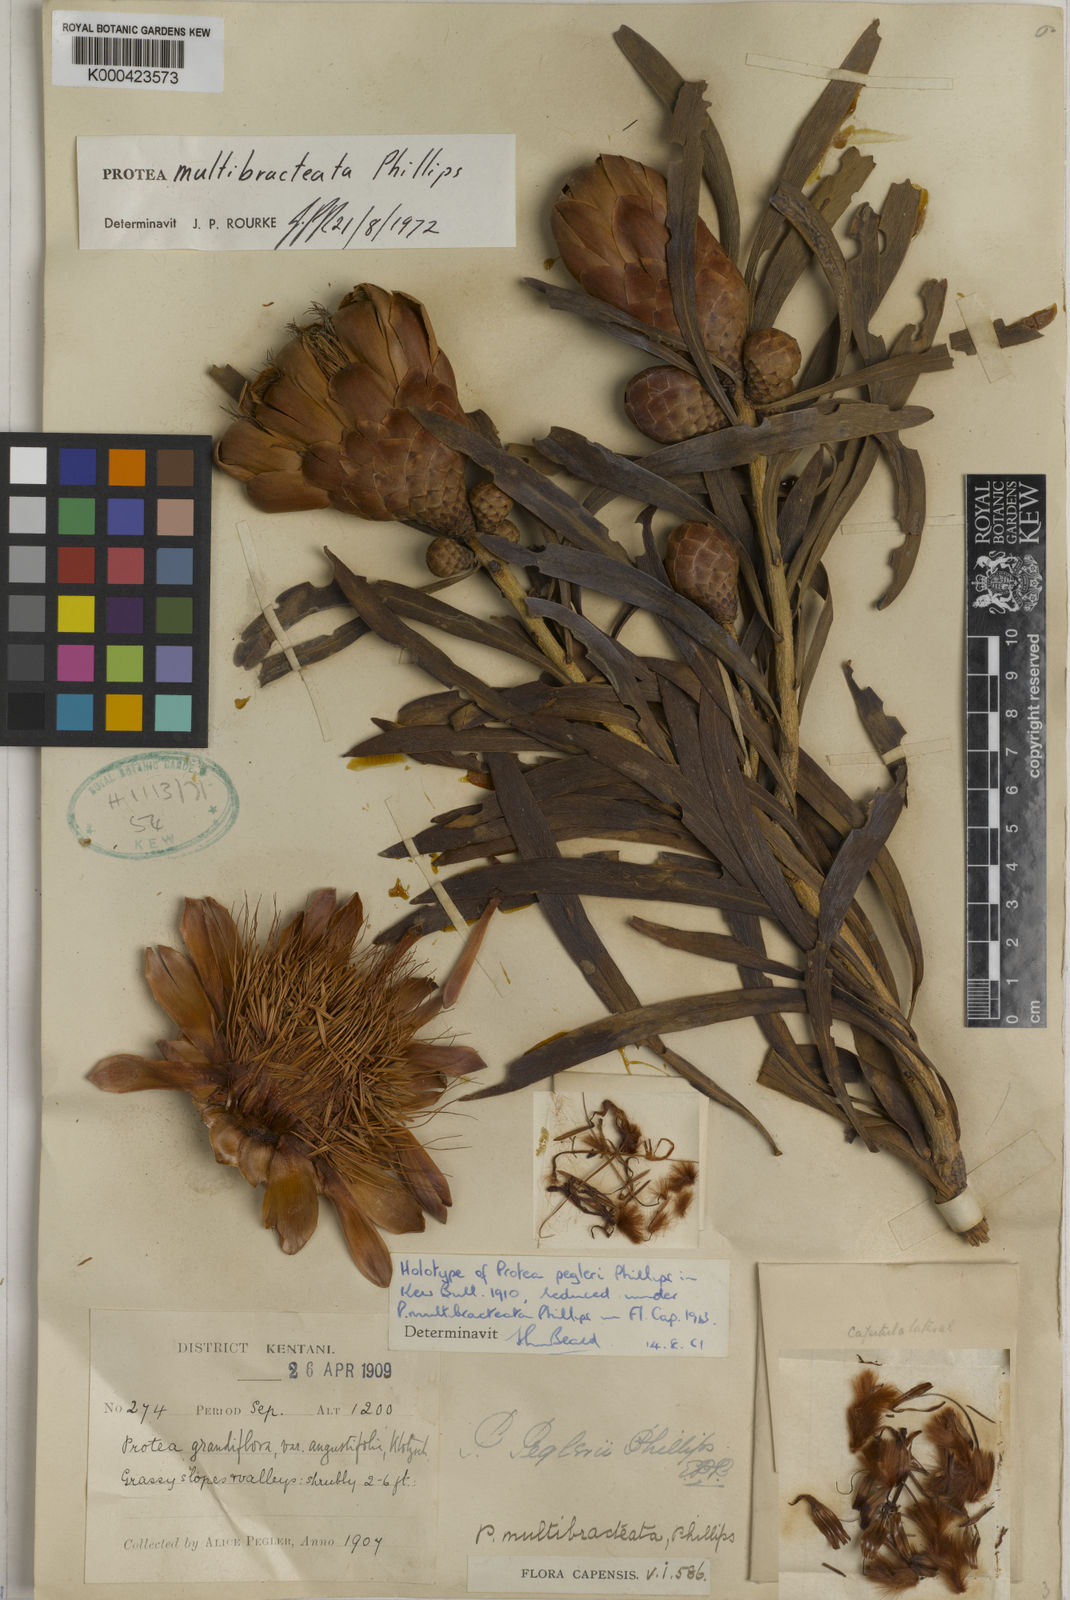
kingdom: Plantae
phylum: Tracheophyta
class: Magnoliopsida
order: Proteales
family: Proteaceae
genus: Protea
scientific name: Protea caffra
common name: Common sugarbush
